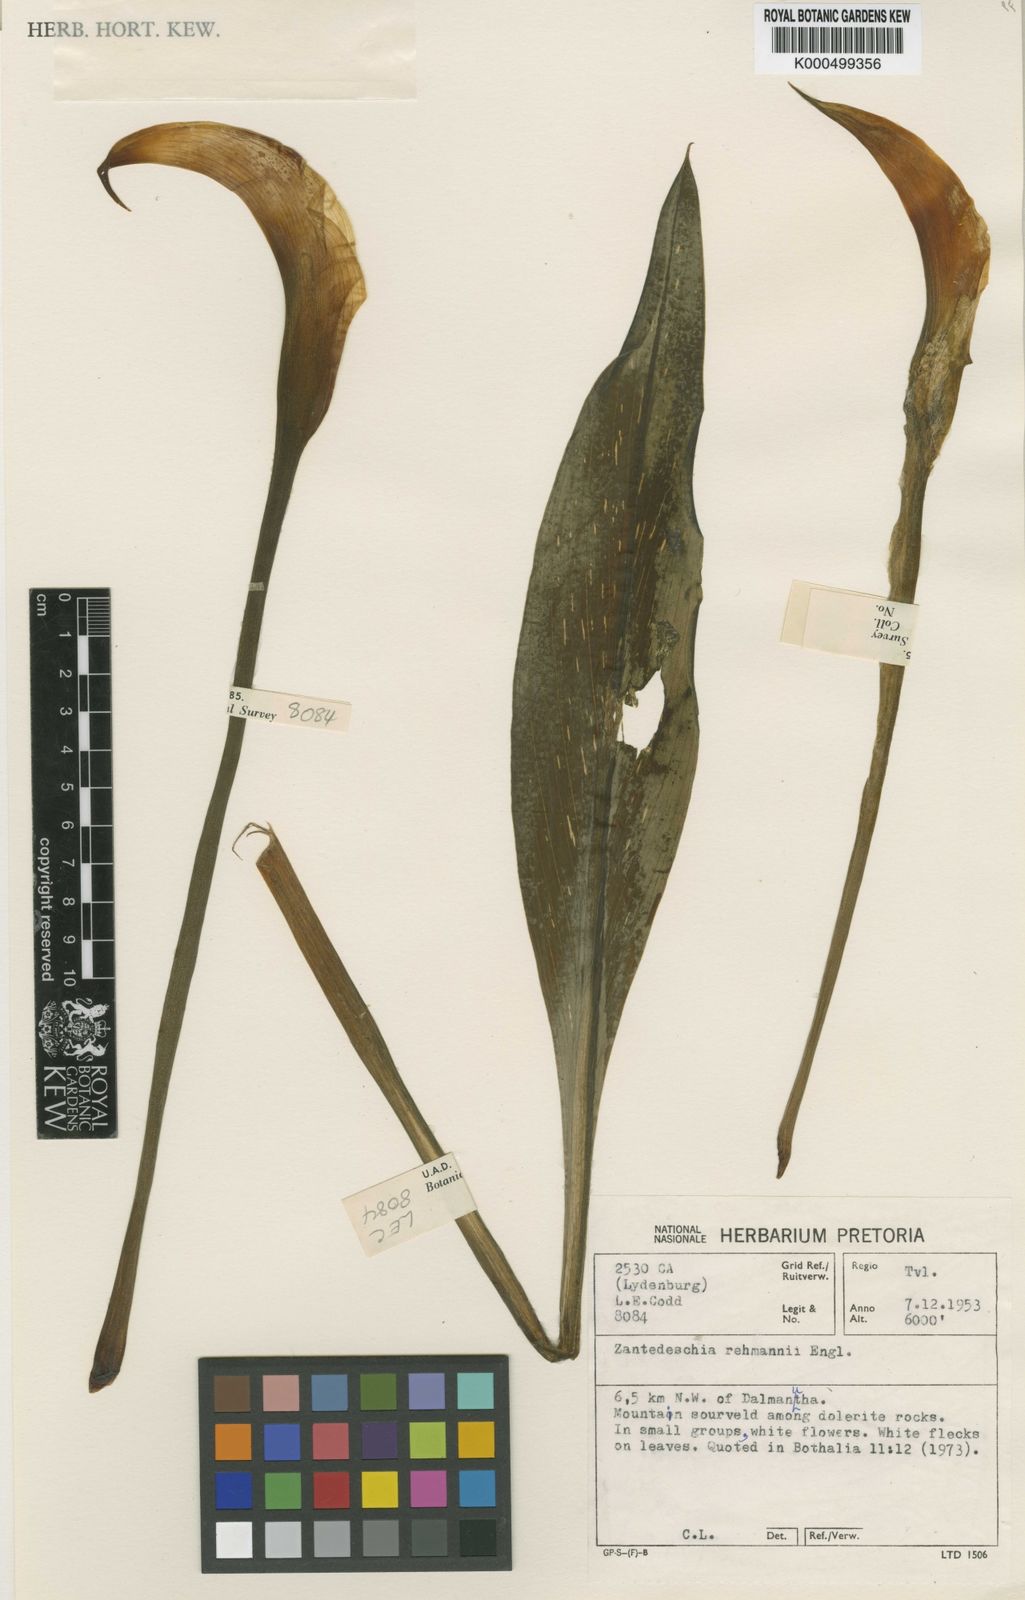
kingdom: Plantae
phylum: Tracheophyta
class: Liliopsida
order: Alismatales
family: Araceae
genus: Zantedeschia
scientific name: Zantedeschia rehmannii
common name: Red calla
